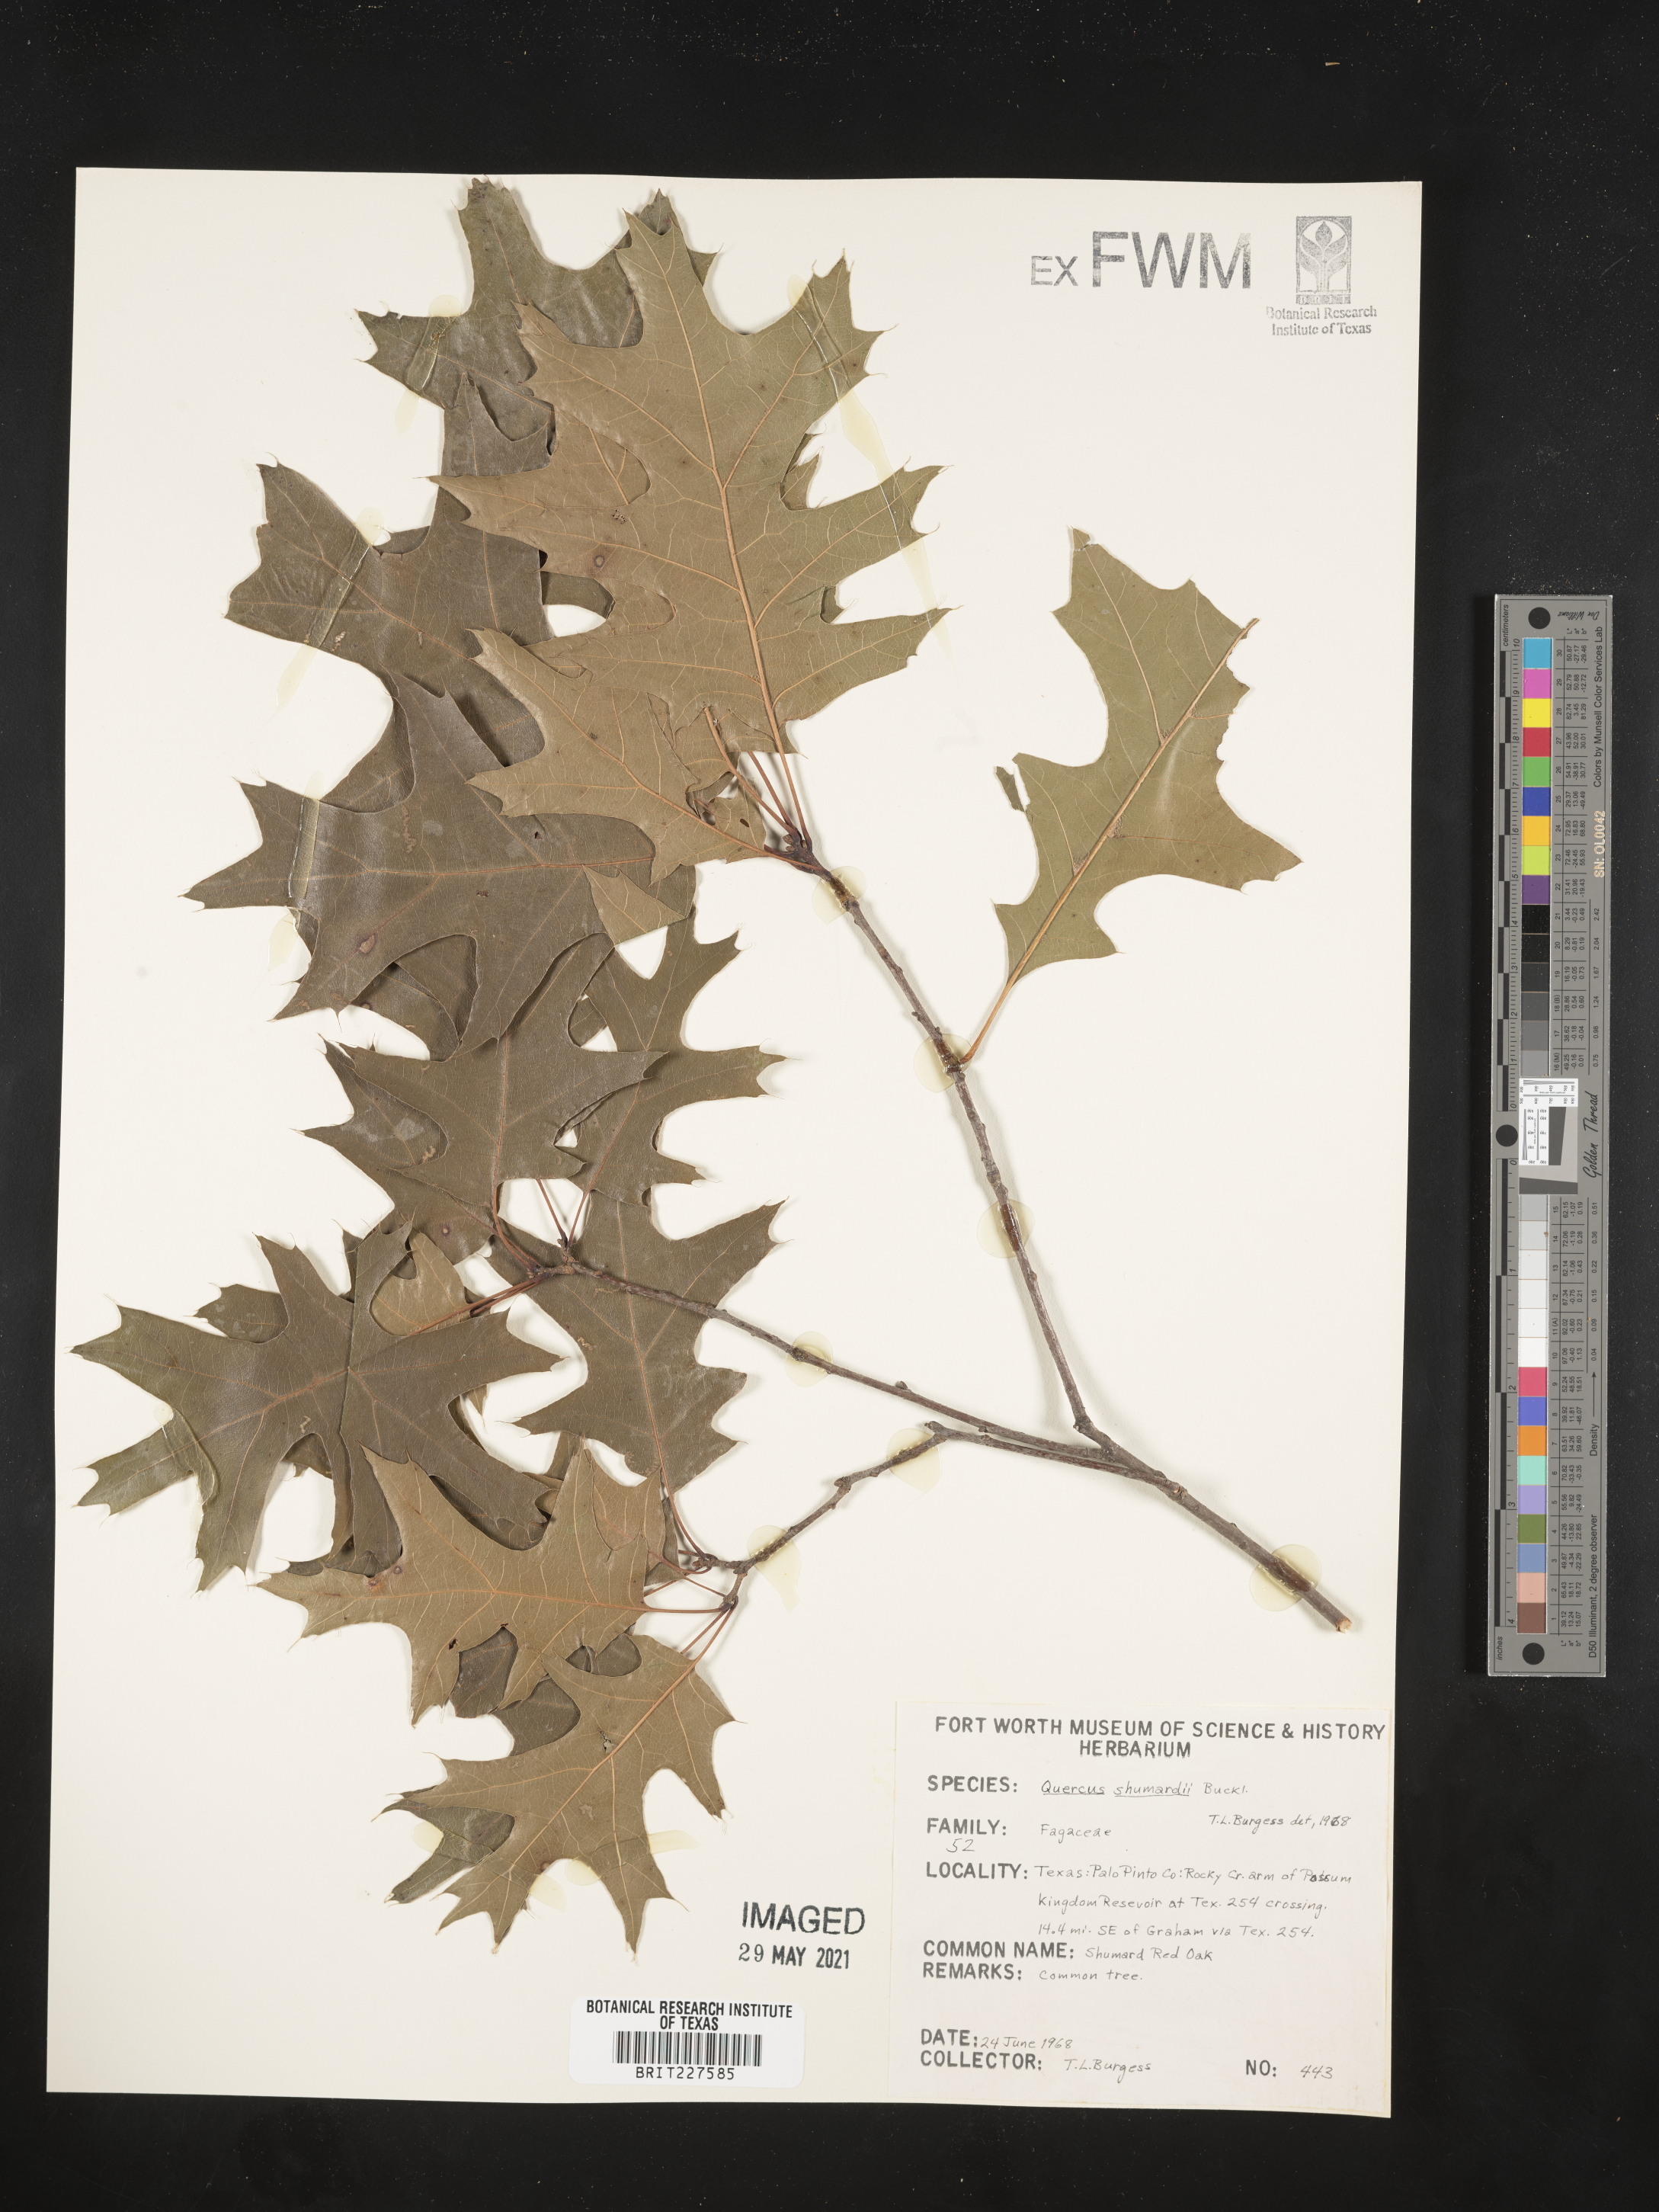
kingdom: Plantae
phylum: Tracheophyta
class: Magnoliopsida
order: Fagales
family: Fagaceae
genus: Quercus
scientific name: Quercus shumardii
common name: Shumard oak
